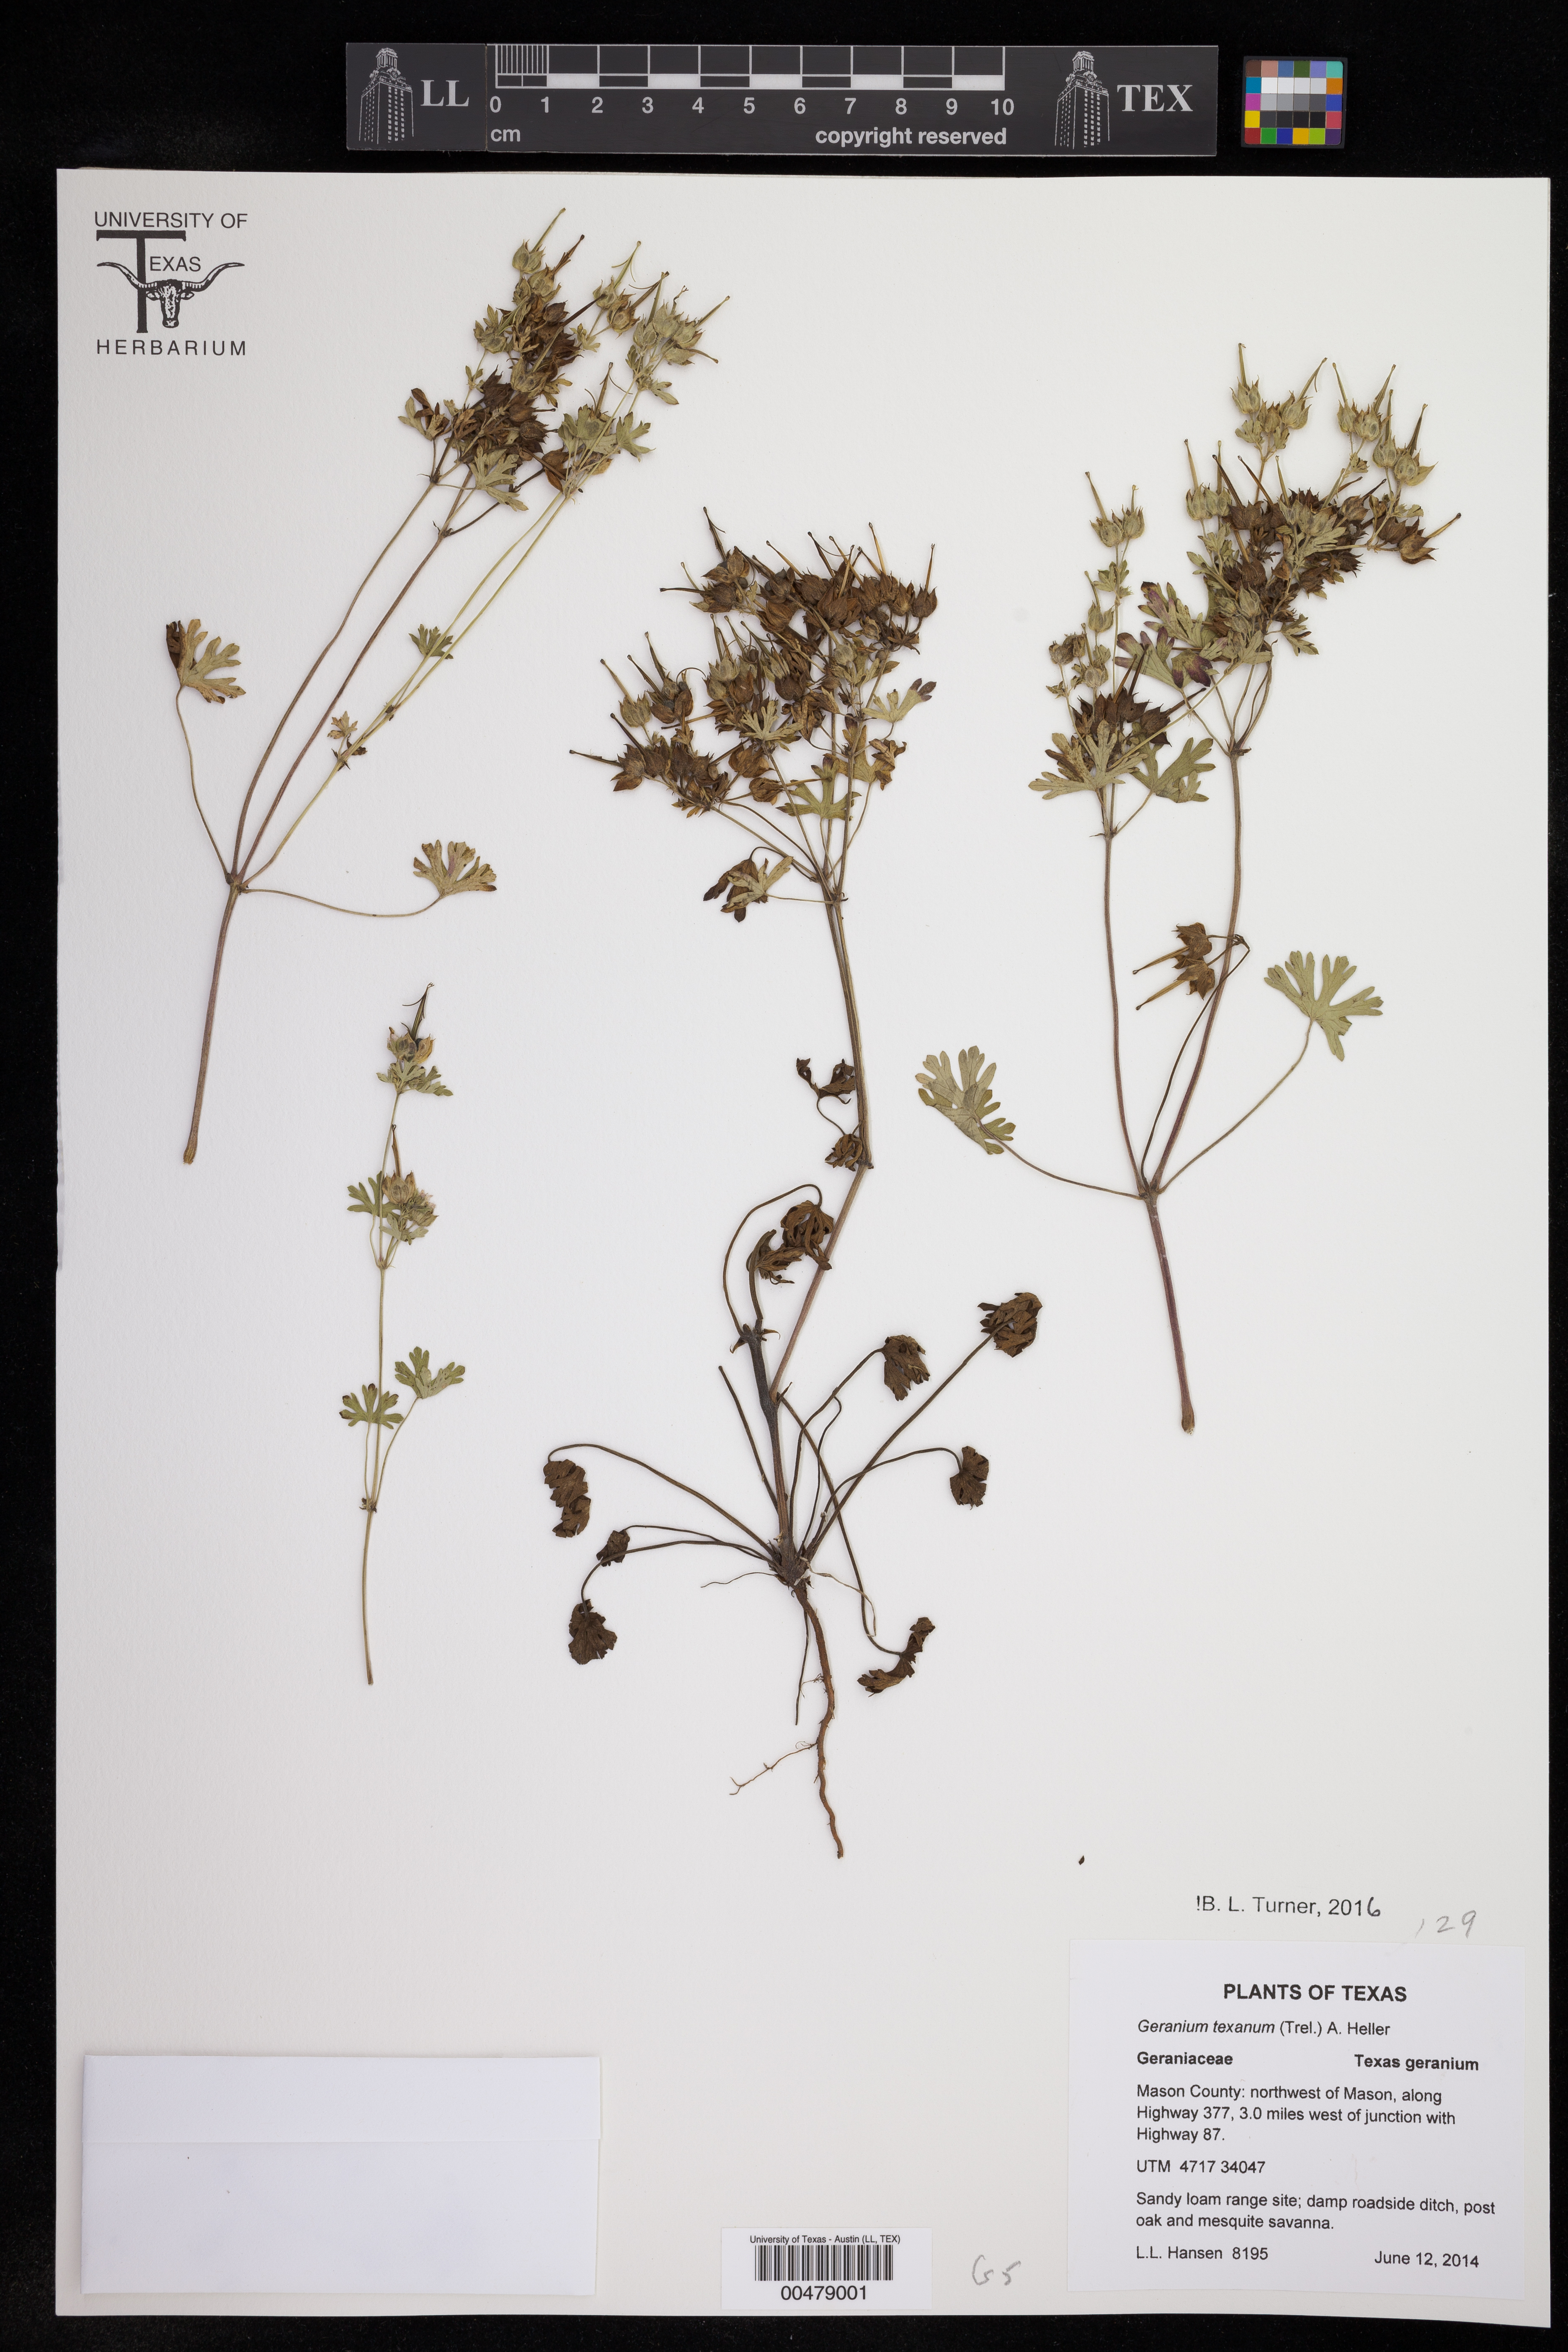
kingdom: Plantae
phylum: Tracheophyta
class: Magnoliopsida
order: Geraniales
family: Geraniaceae
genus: Geranium
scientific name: Geranium texanum
